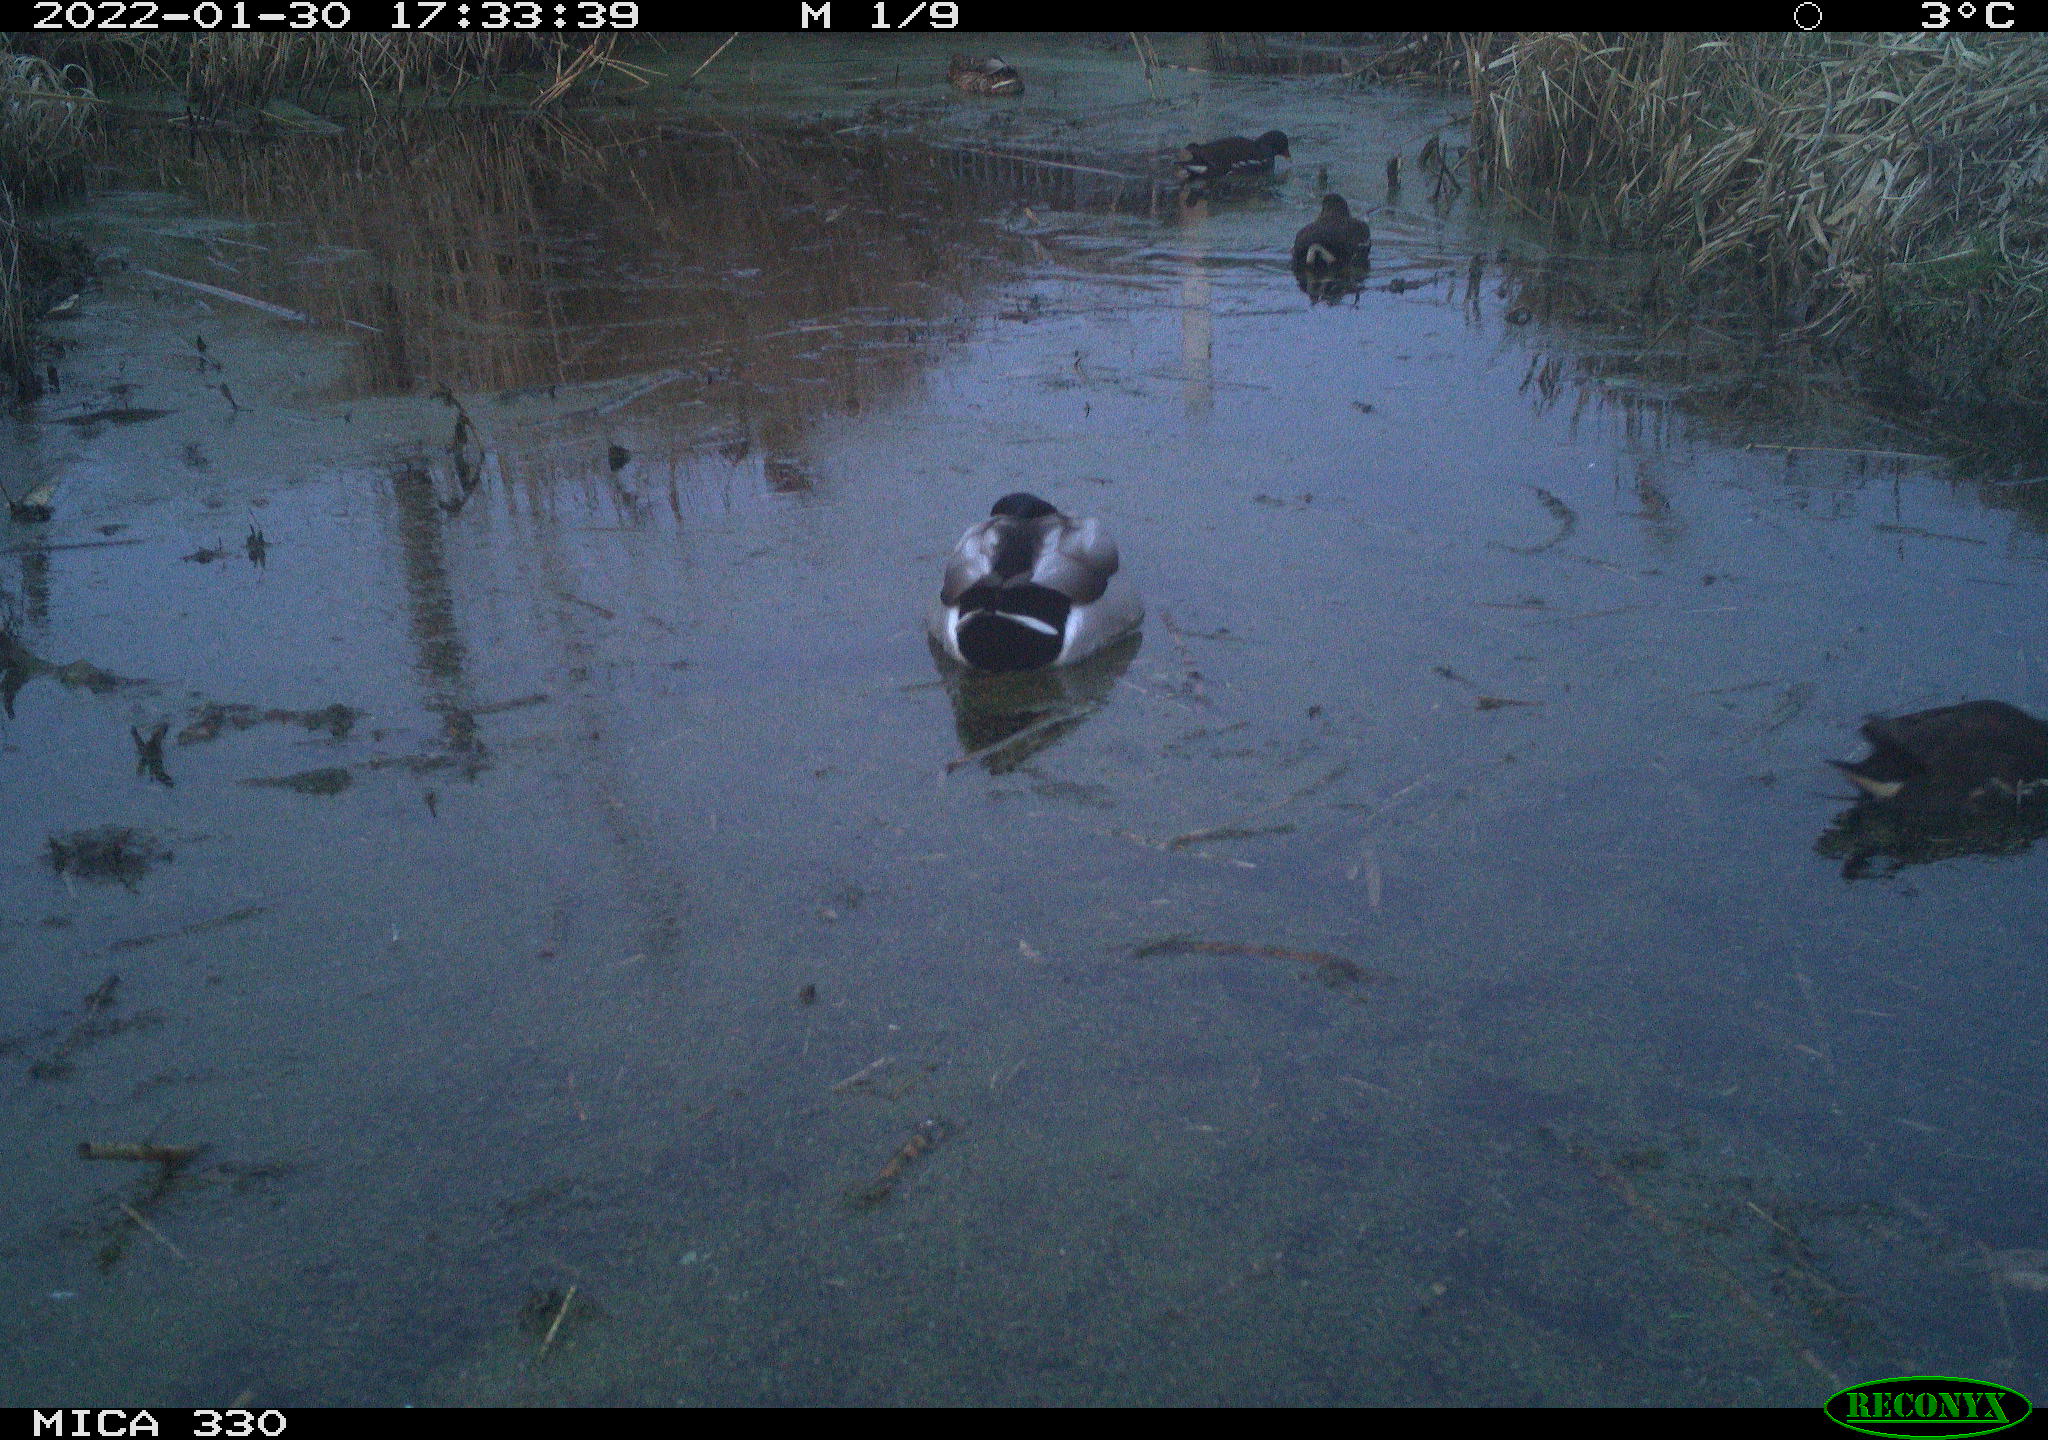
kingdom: Animalia
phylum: Chordata
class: Aves
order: Anseriformes
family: Anatidae
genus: Anas
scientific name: Anas platyrhynchos
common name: Mallard
